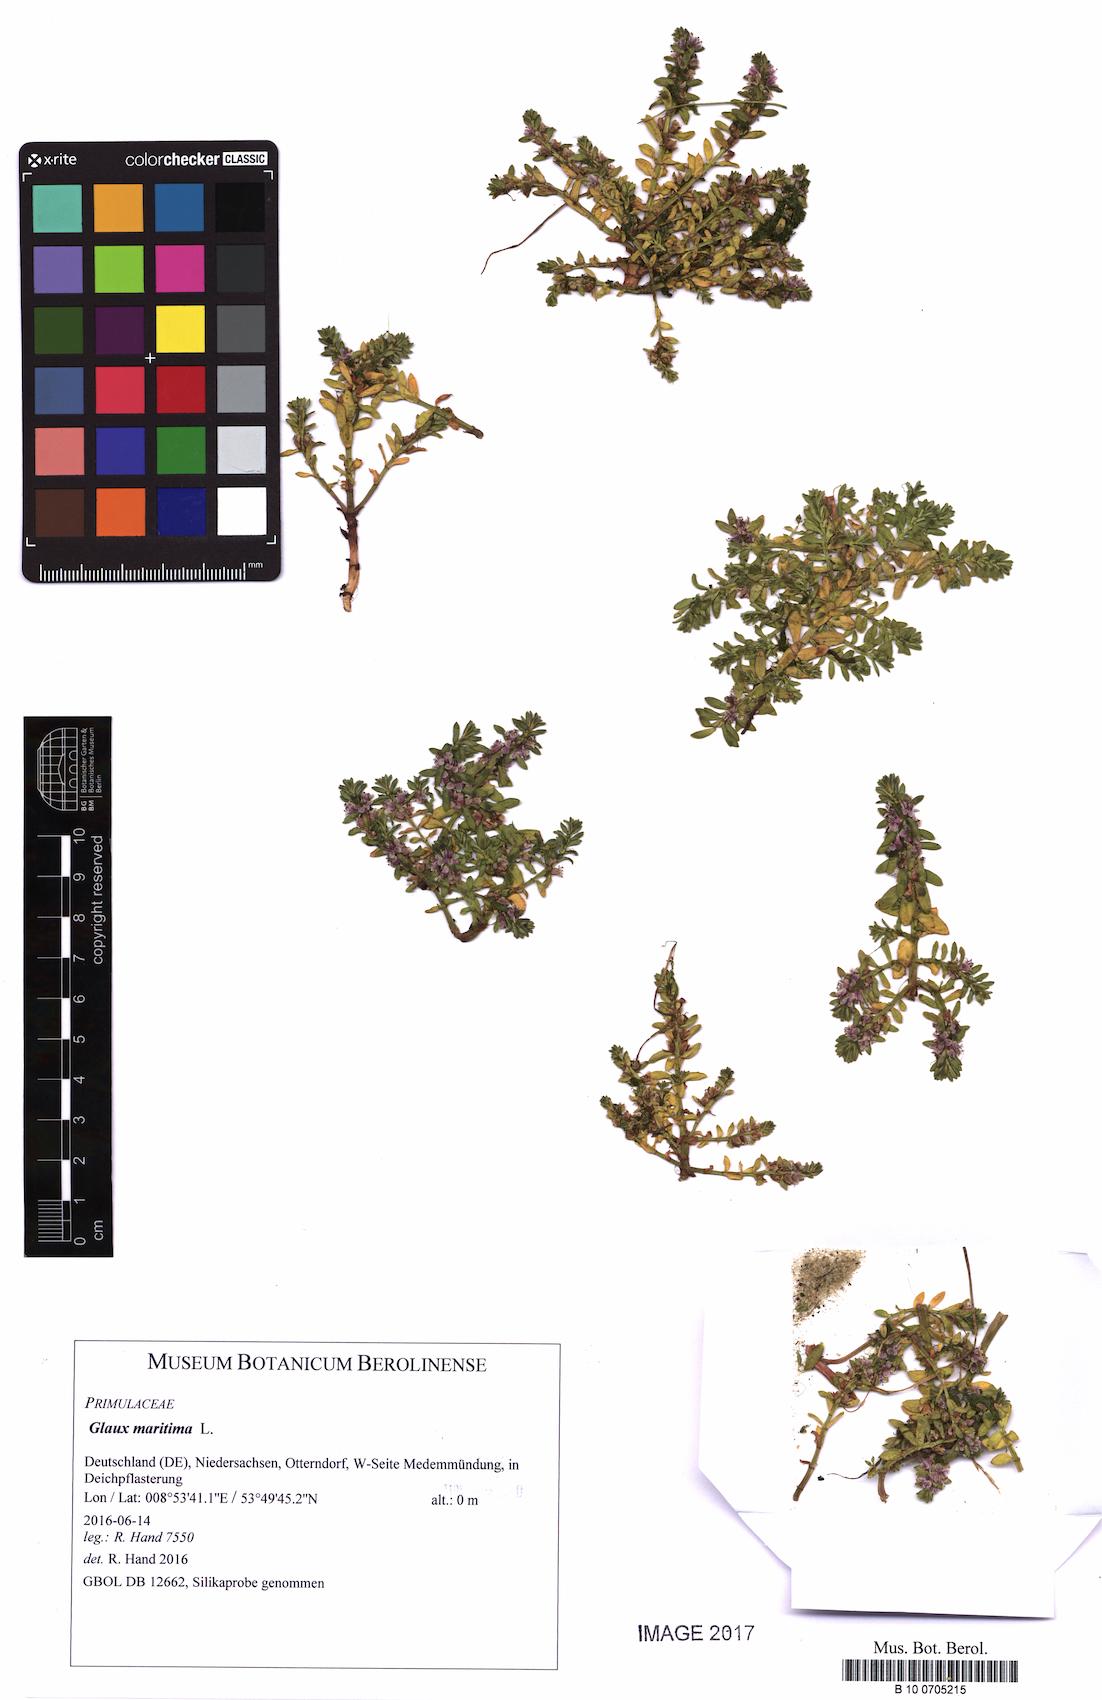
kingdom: Plantae
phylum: Tracheophyta
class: Magnoliopsida
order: Ericales
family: Primulaceae
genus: Lysimachia
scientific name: Lysimachia maritima
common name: Sea milkwort
